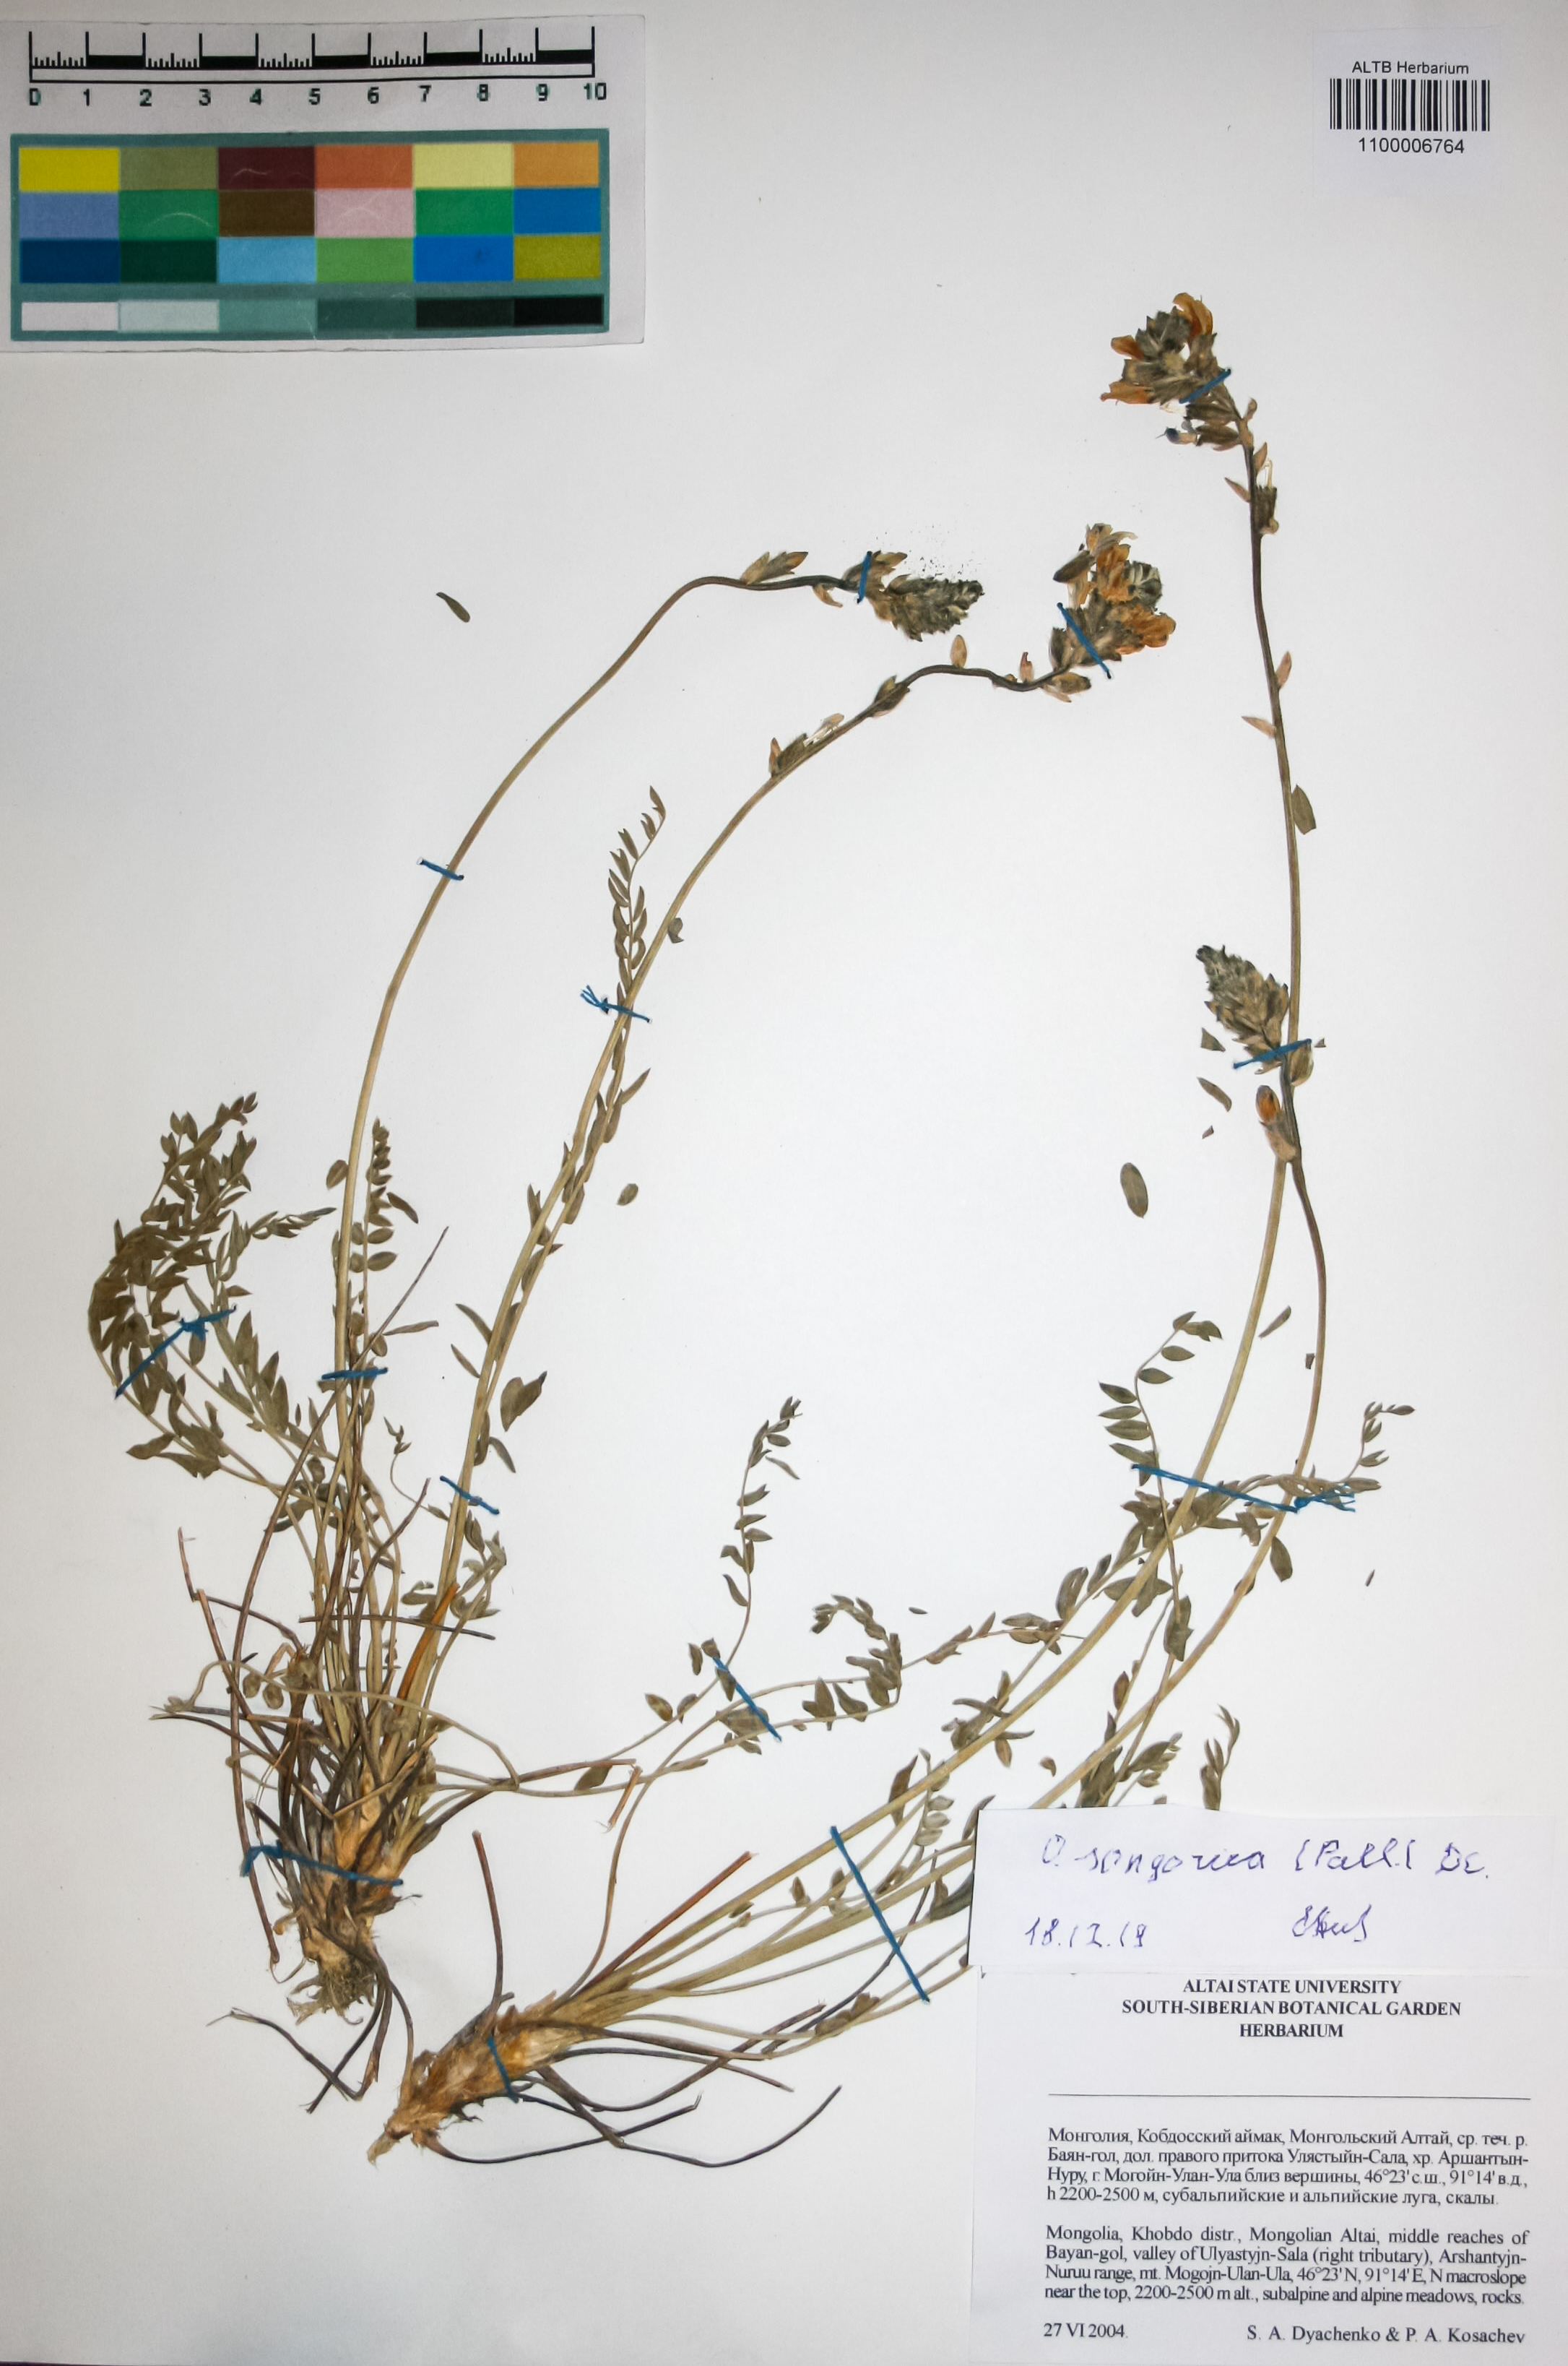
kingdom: Plantae
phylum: Tracheophyta
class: Magnoliopsida
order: Fabales
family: Fabaceae
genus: Oxytropis
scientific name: Oxytropis songorica
